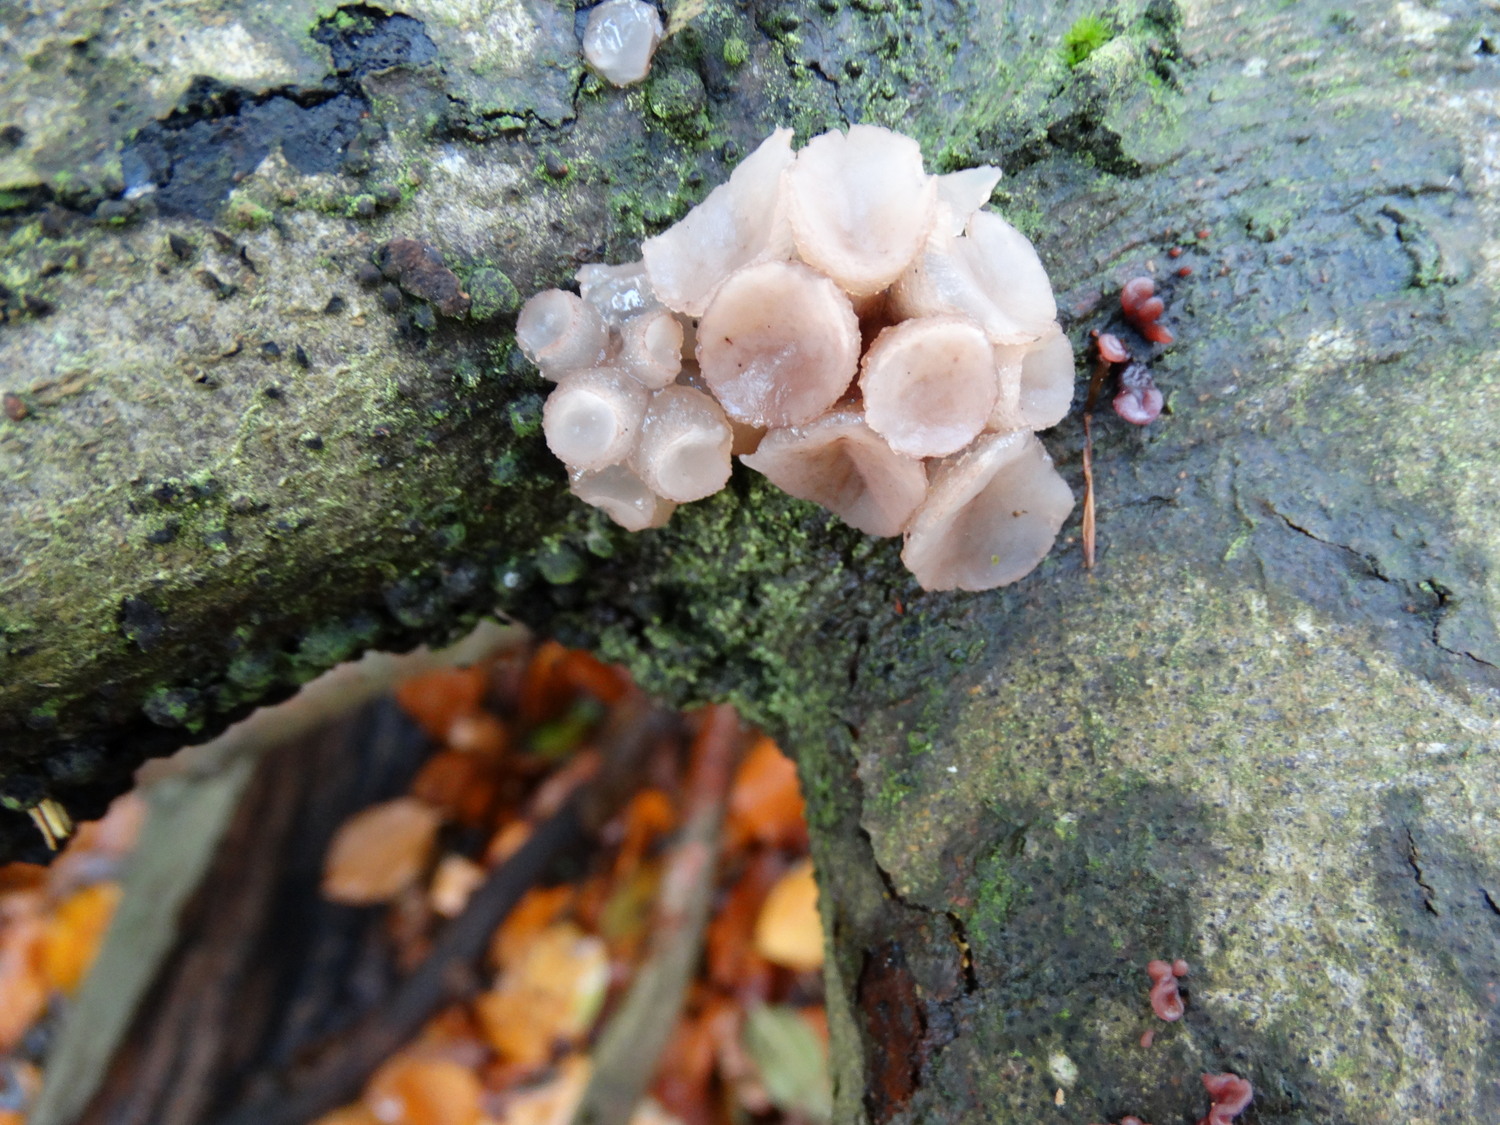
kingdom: Fungi
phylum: Ascomycota
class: Leotiomycetes
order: Helotiales
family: Gelatinodiscaceae
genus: Neobulgaria
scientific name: Neobulgaria pura
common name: bleg bævreskive
